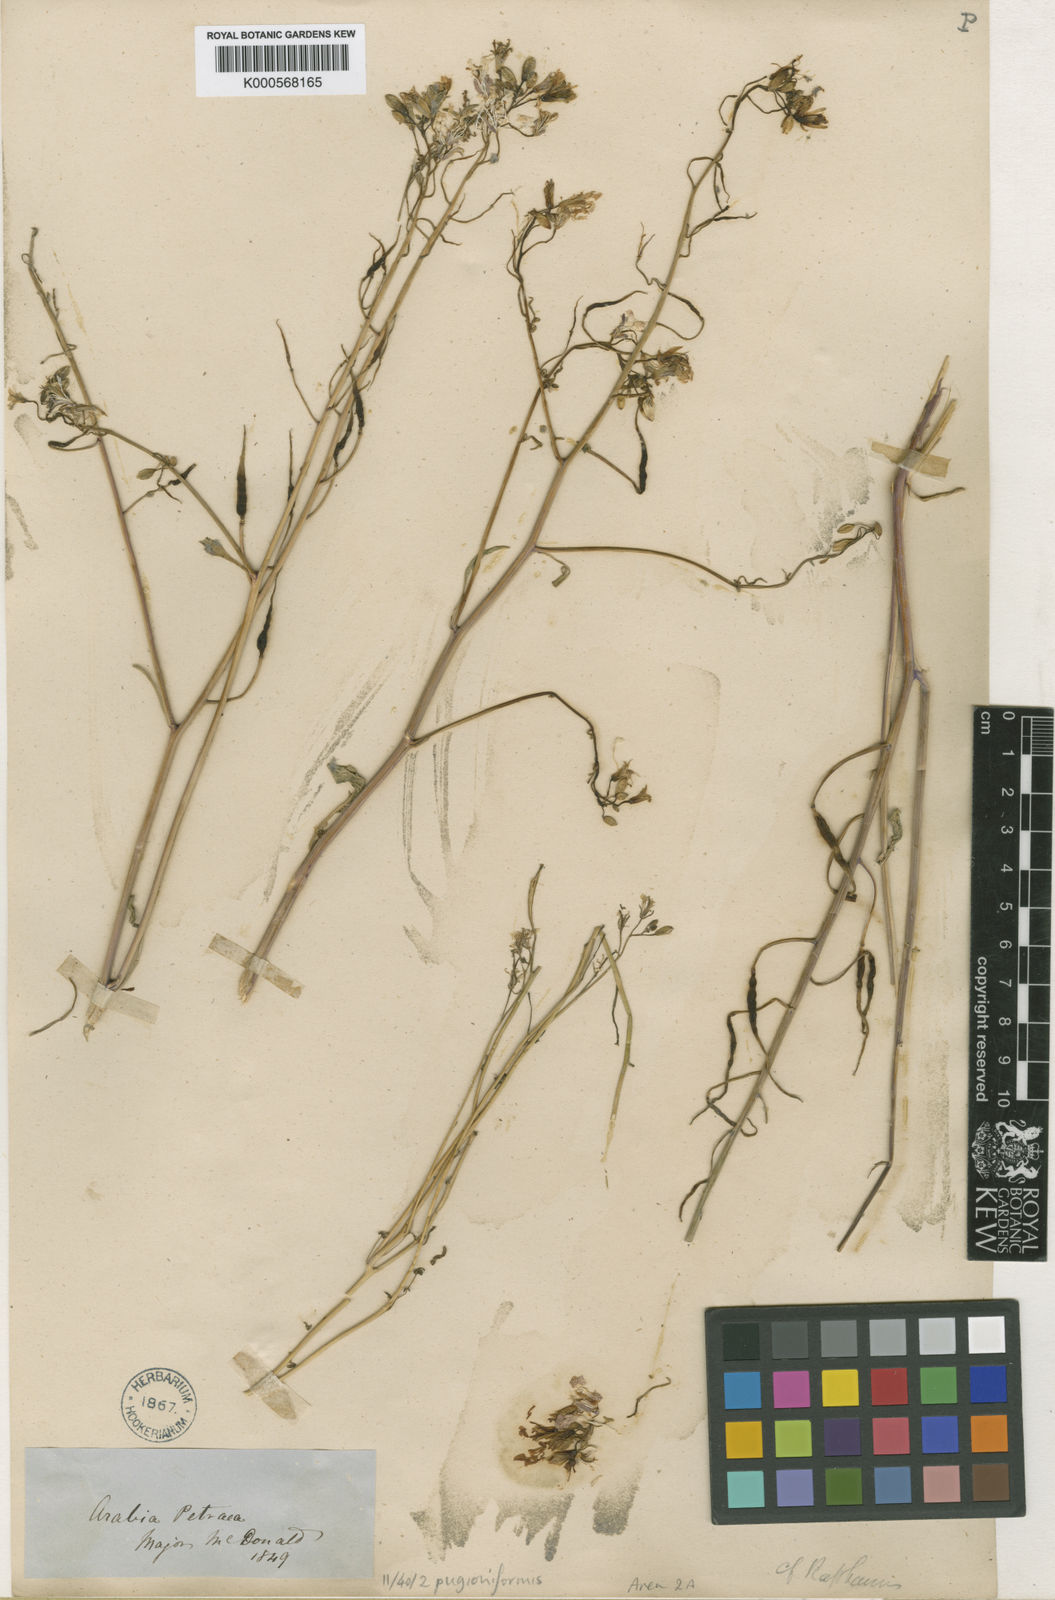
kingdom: Plantae
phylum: Tracheophyta
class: Magnoliopsida
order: Brassicales
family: Brassicaceae
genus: Raphanus
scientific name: Raphanus raphanistrum
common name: Wild radish
